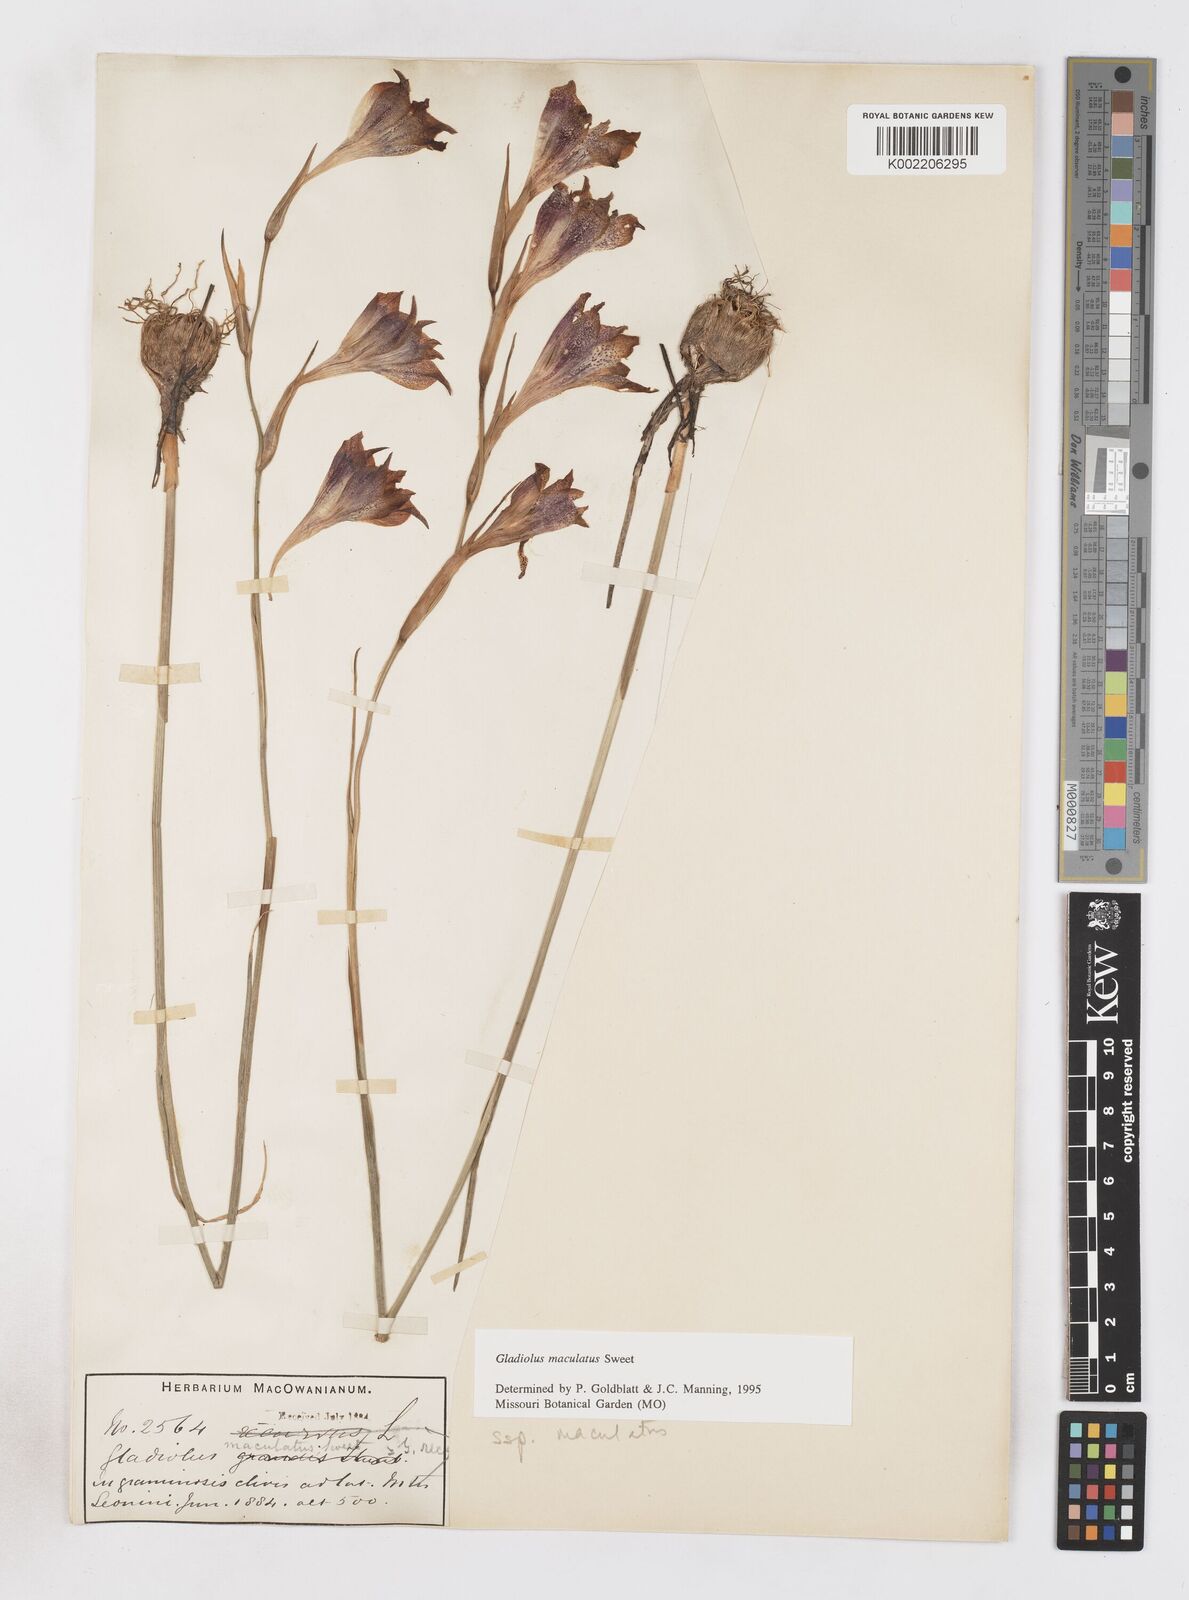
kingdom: Plantae
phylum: Tracheophyta
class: Liliopsida
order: Asparagales
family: Iridaceae
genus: Gladiolus
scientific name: Gladiolus maculatus
